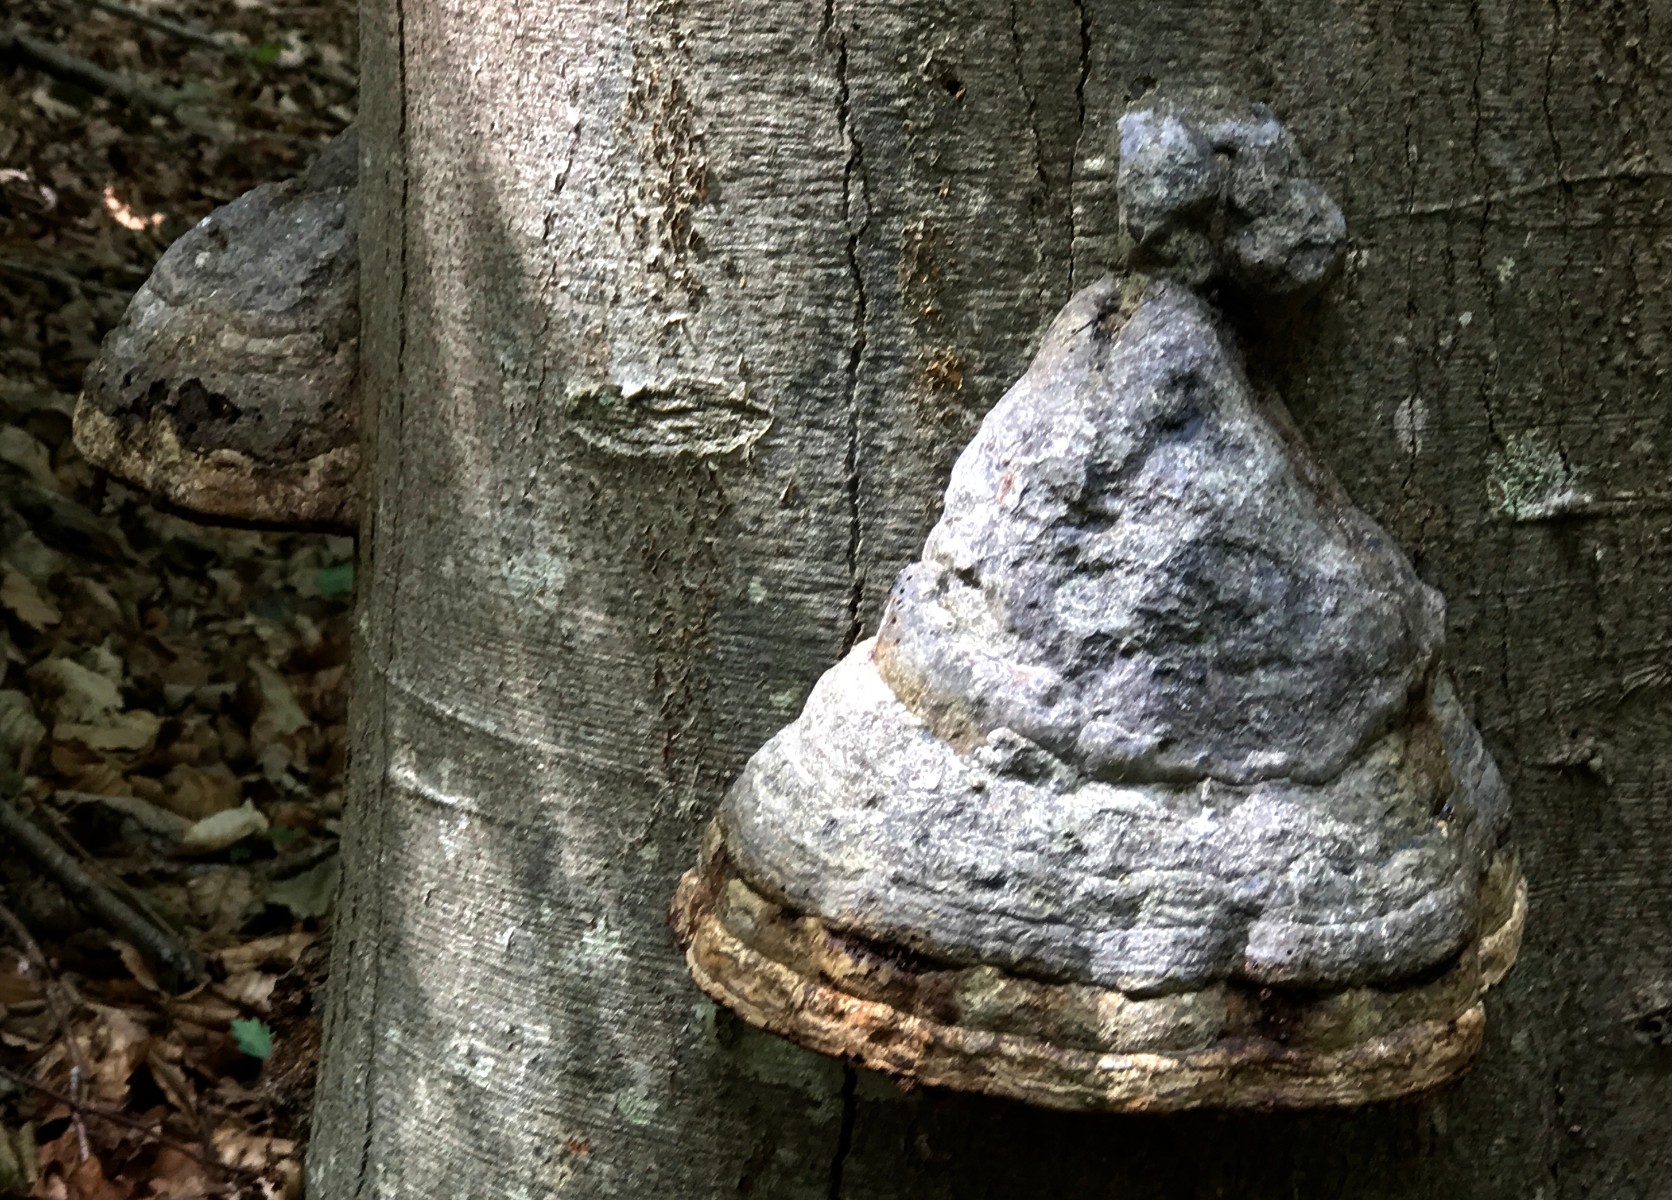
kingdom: Fungi
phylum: Basidiomycota
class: Agaricomycetes
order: Polyporales
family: Polyporaceae
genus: Fomes
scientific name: Fomes fomentarius
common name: tøndersvamp
